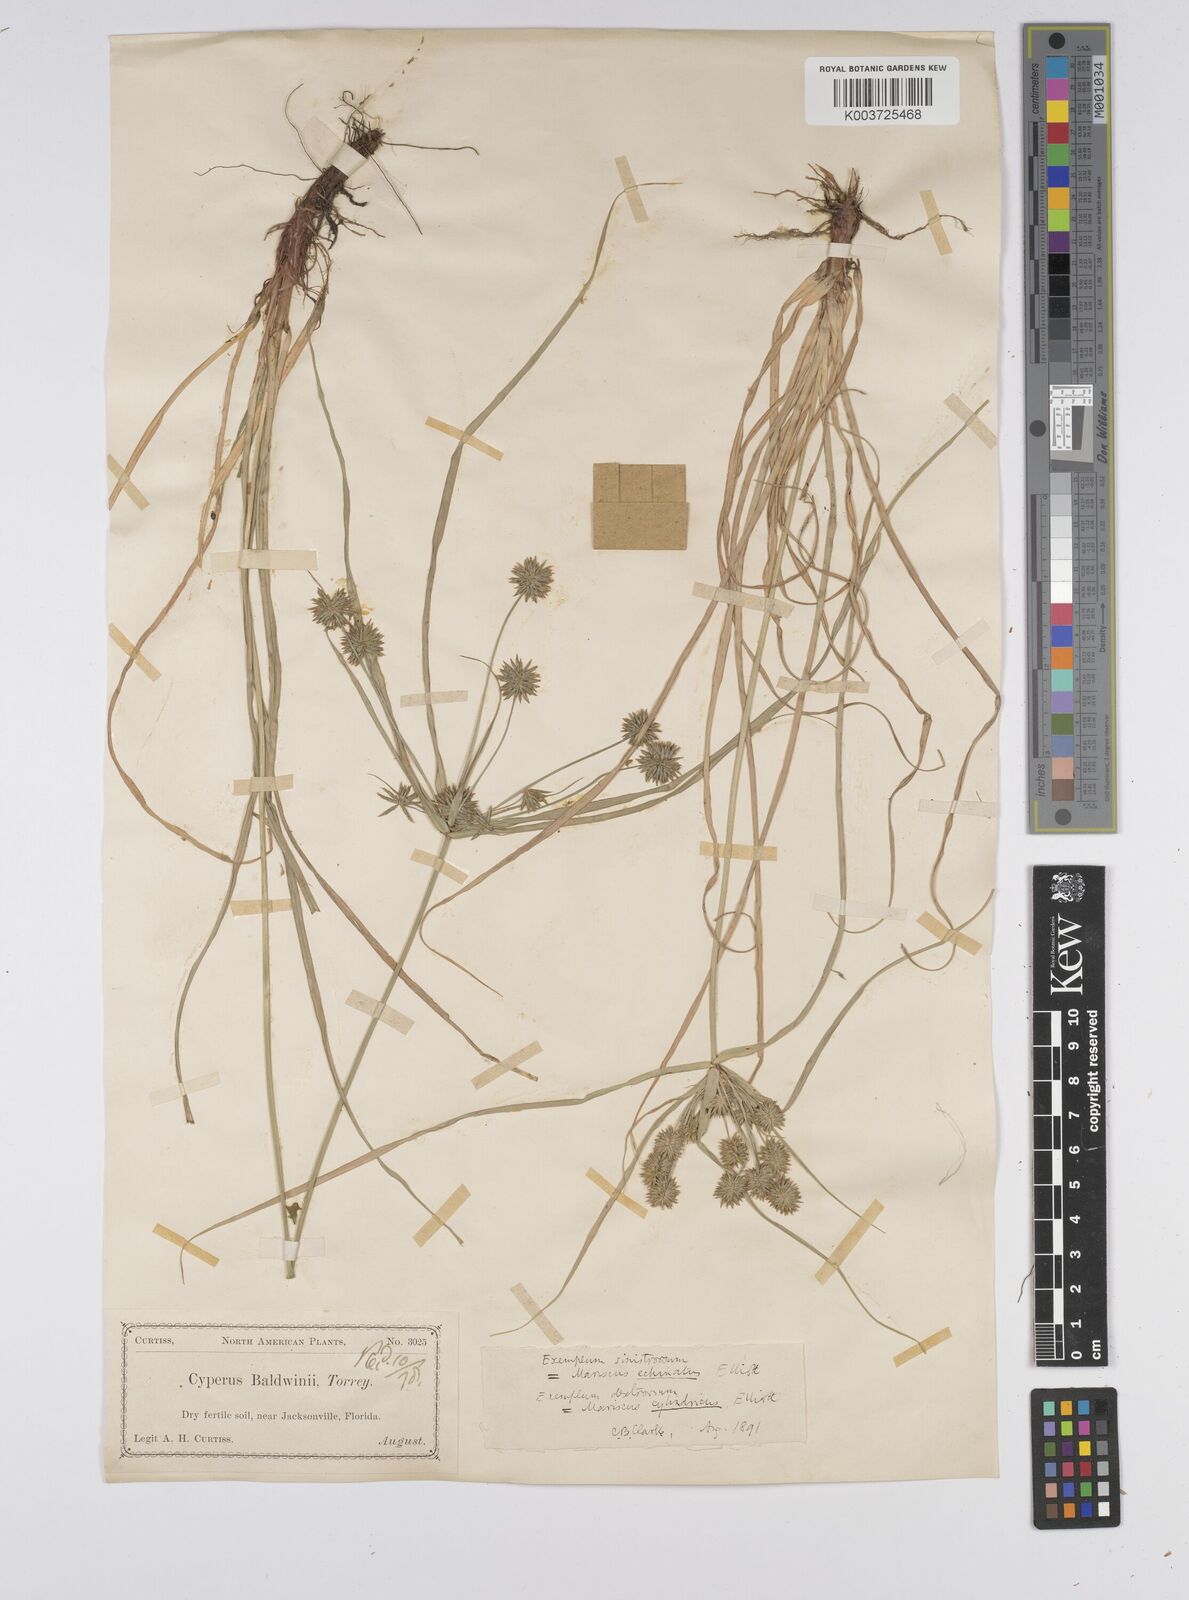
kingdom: Plantae
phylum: Tracheophyta
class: Liliopsida
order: Poales
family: Cyperaceae
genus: Cyperus
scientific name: Cyperus luzulae
